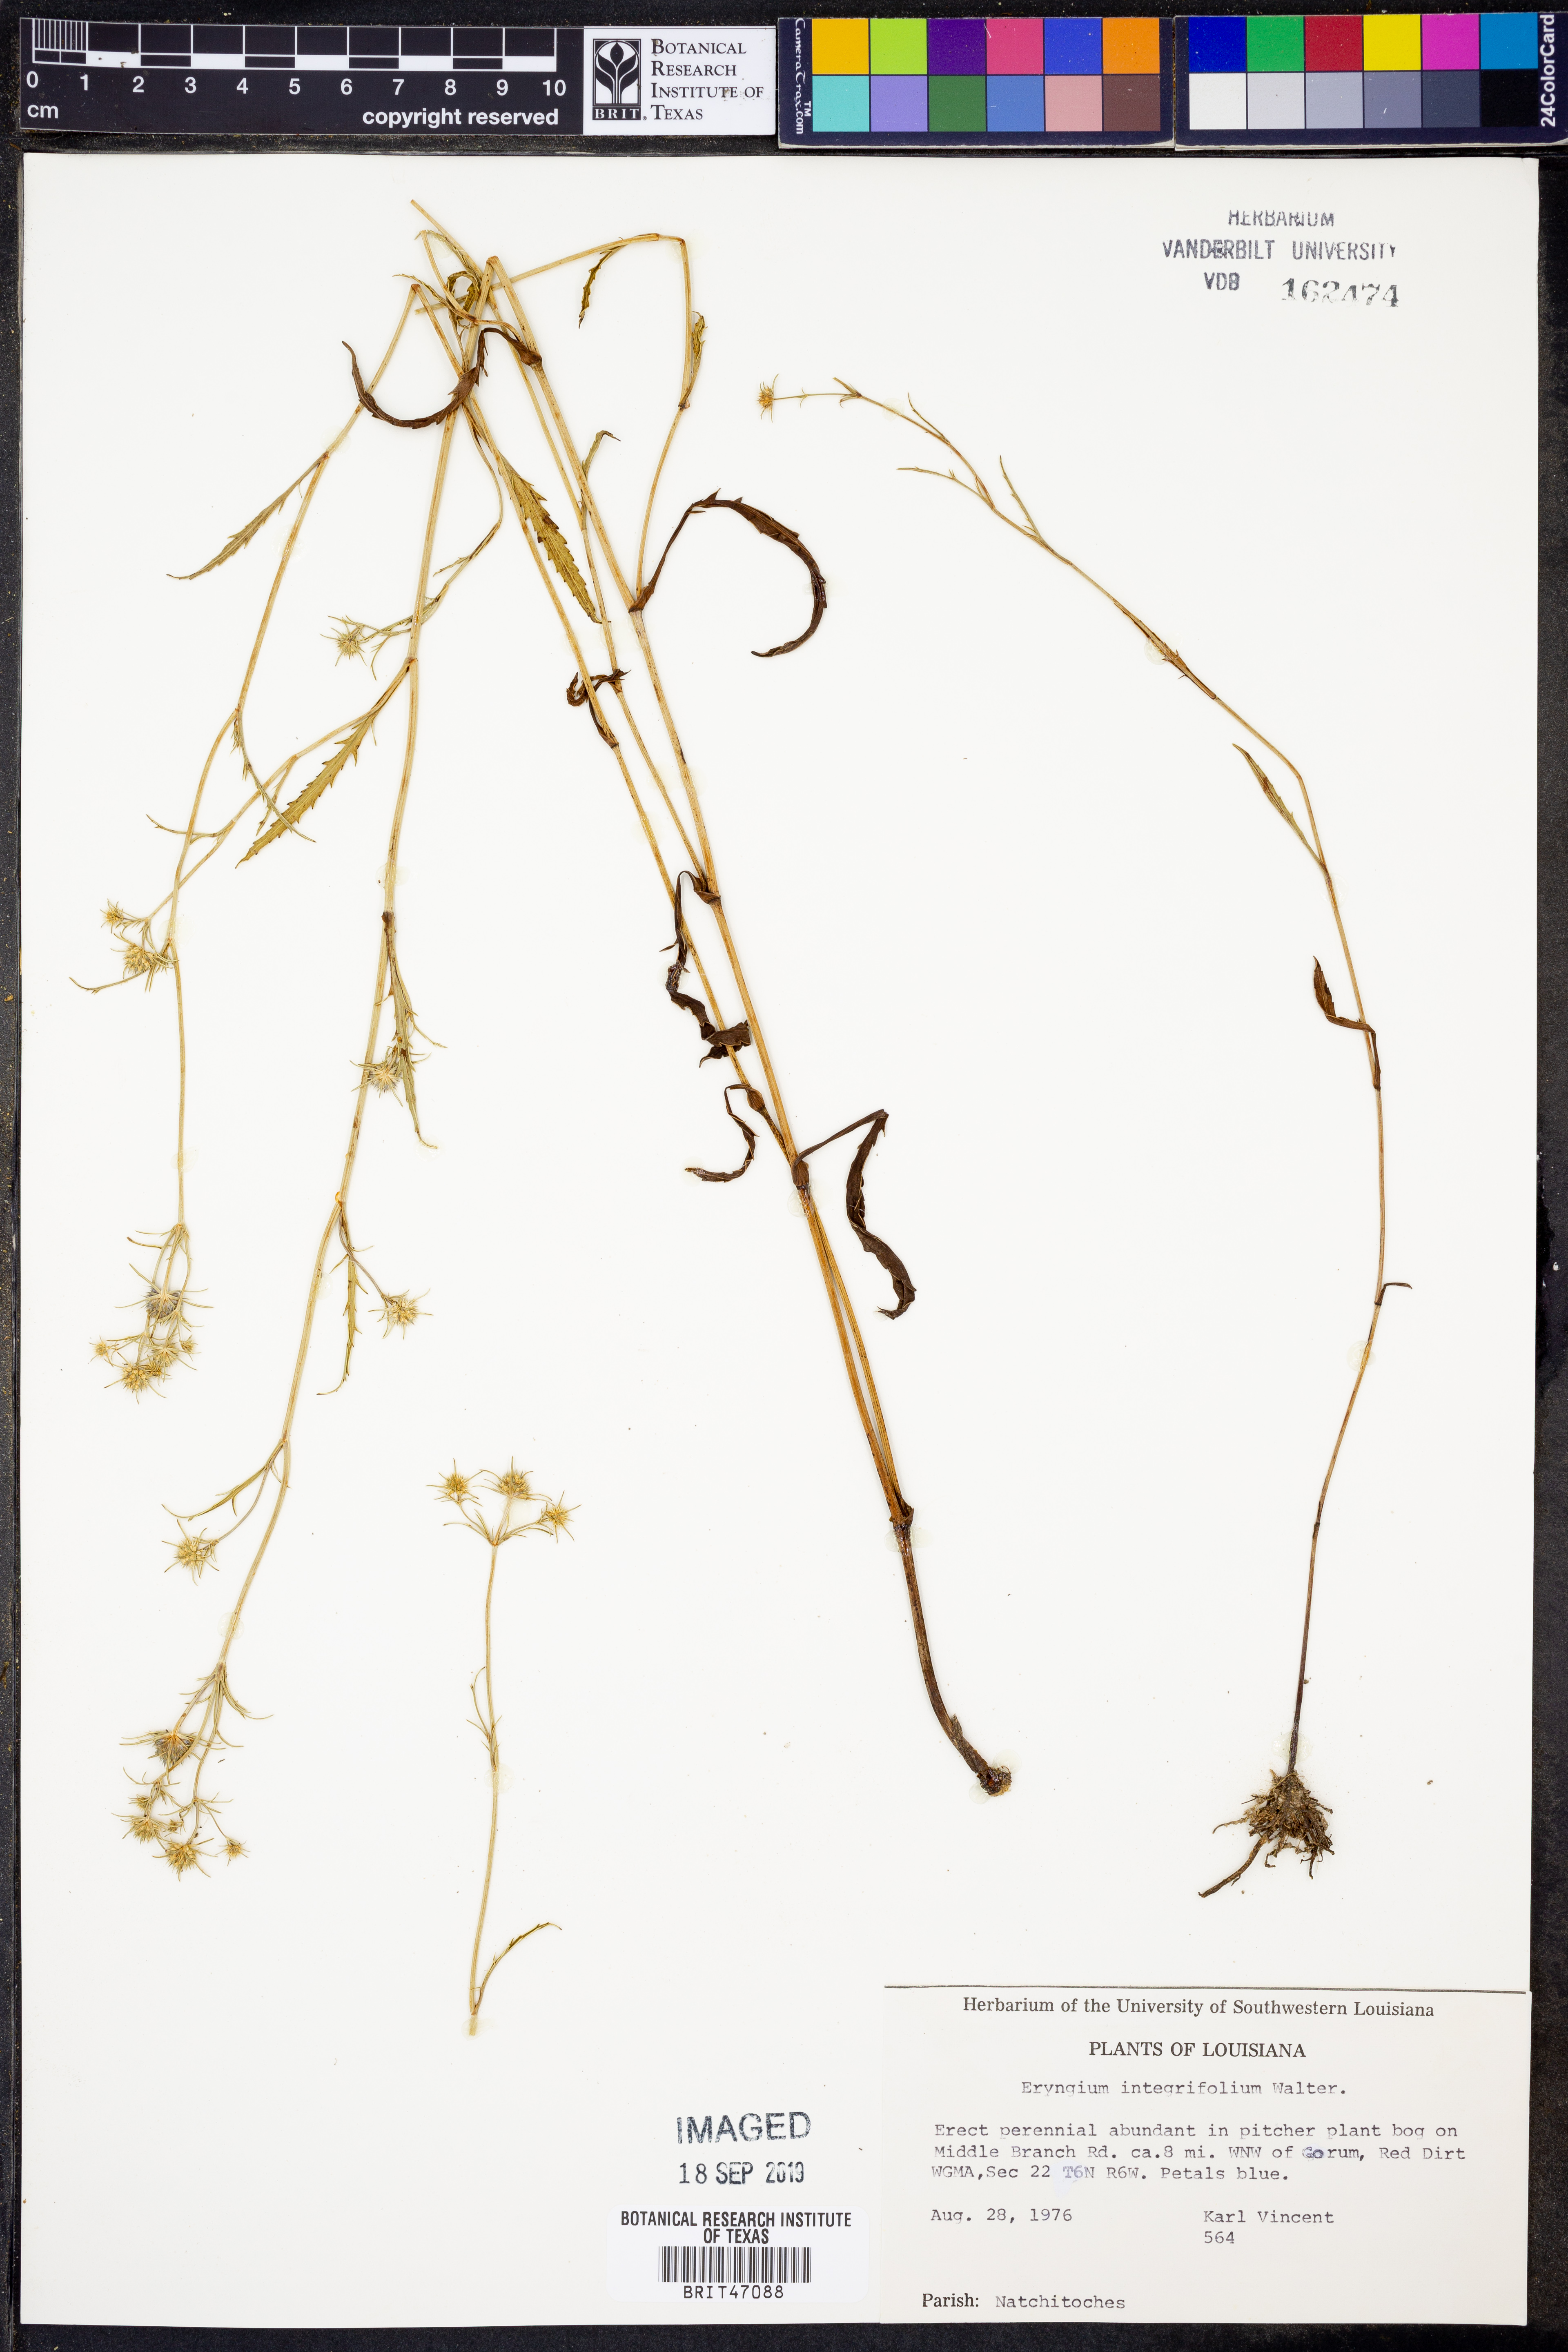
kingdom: Plantae
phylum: Tracheophyta
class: Magnoliopsida
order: Apiales
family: Apiaceae
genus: Eryngium
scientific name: Eryngium integrifolium
